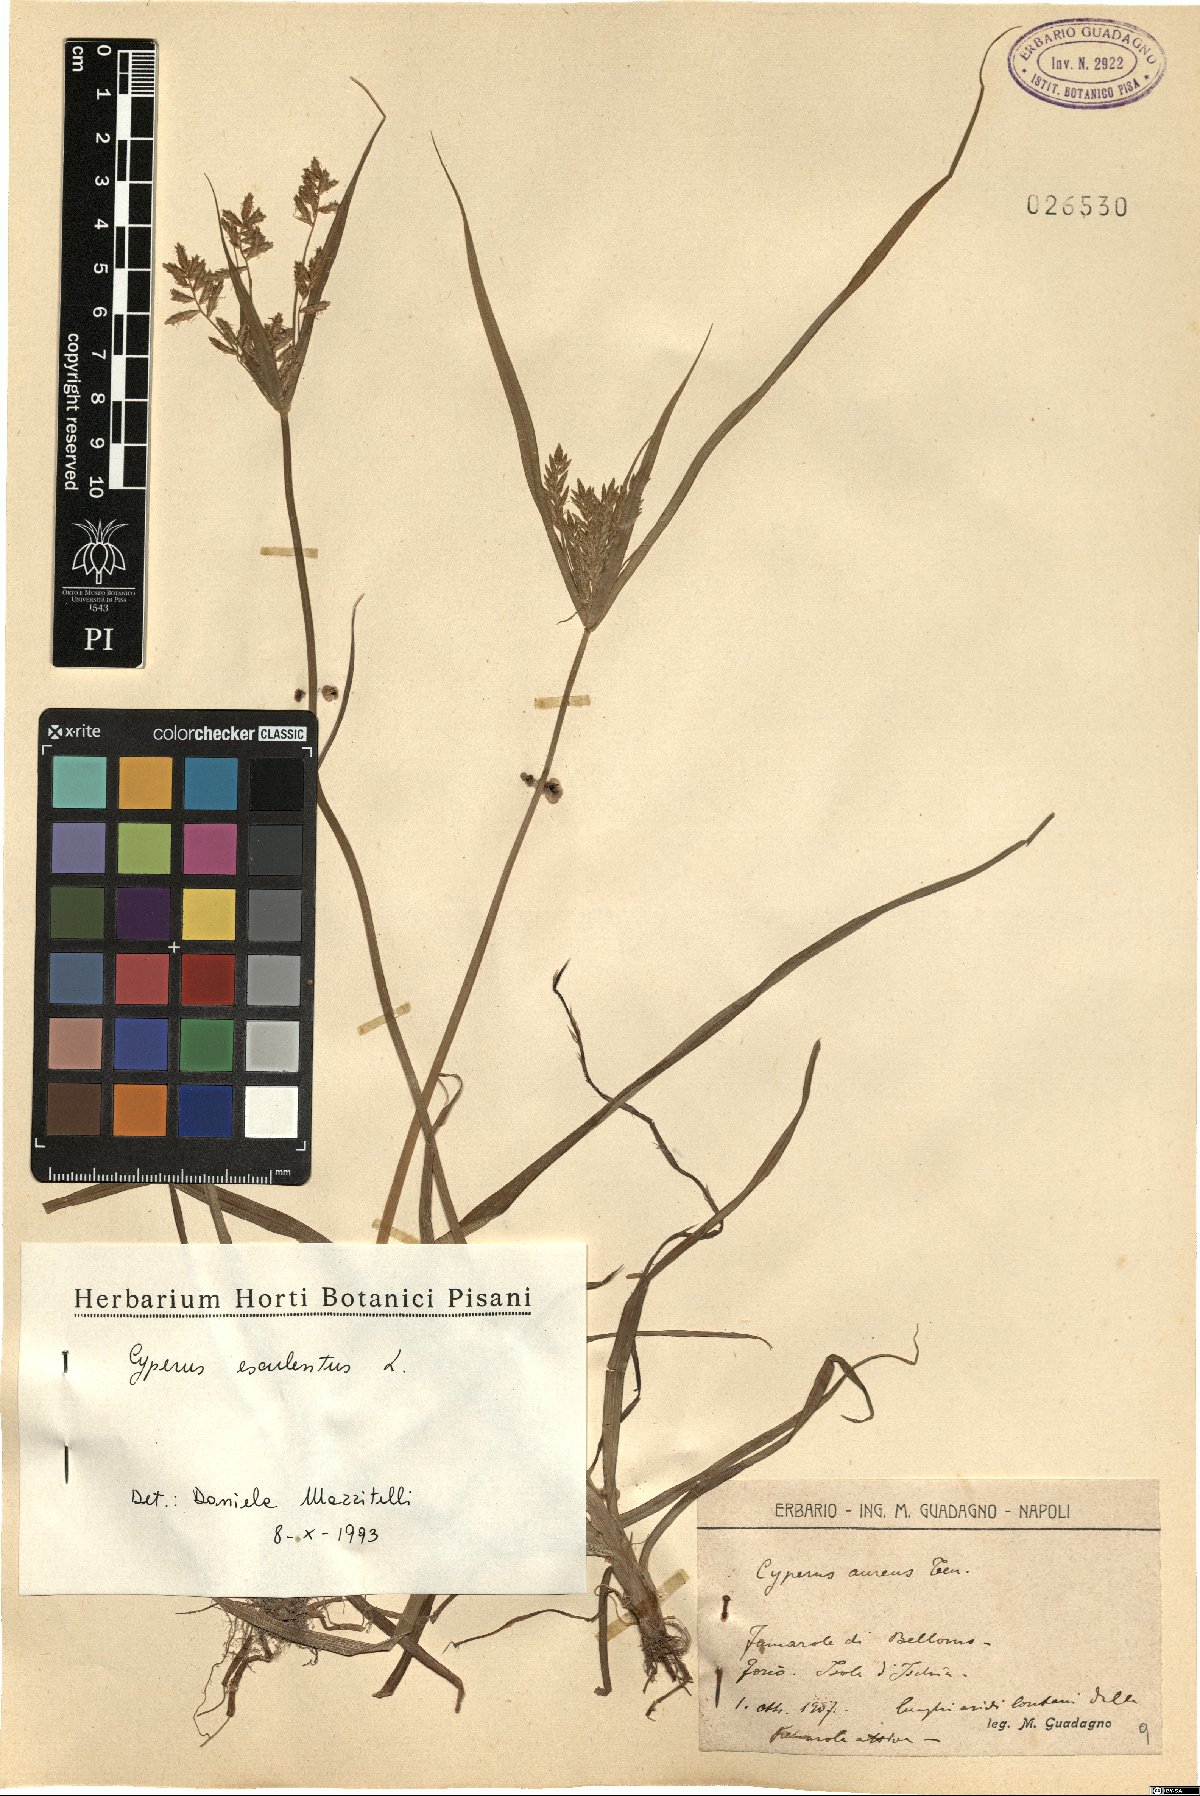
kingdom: Plantae
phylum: Tracheophyta
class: Liliopsida
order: Poales
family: Cyperaceae
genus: Cyperus
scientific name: Cyperus esculentus
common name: Yellow nutsedge
